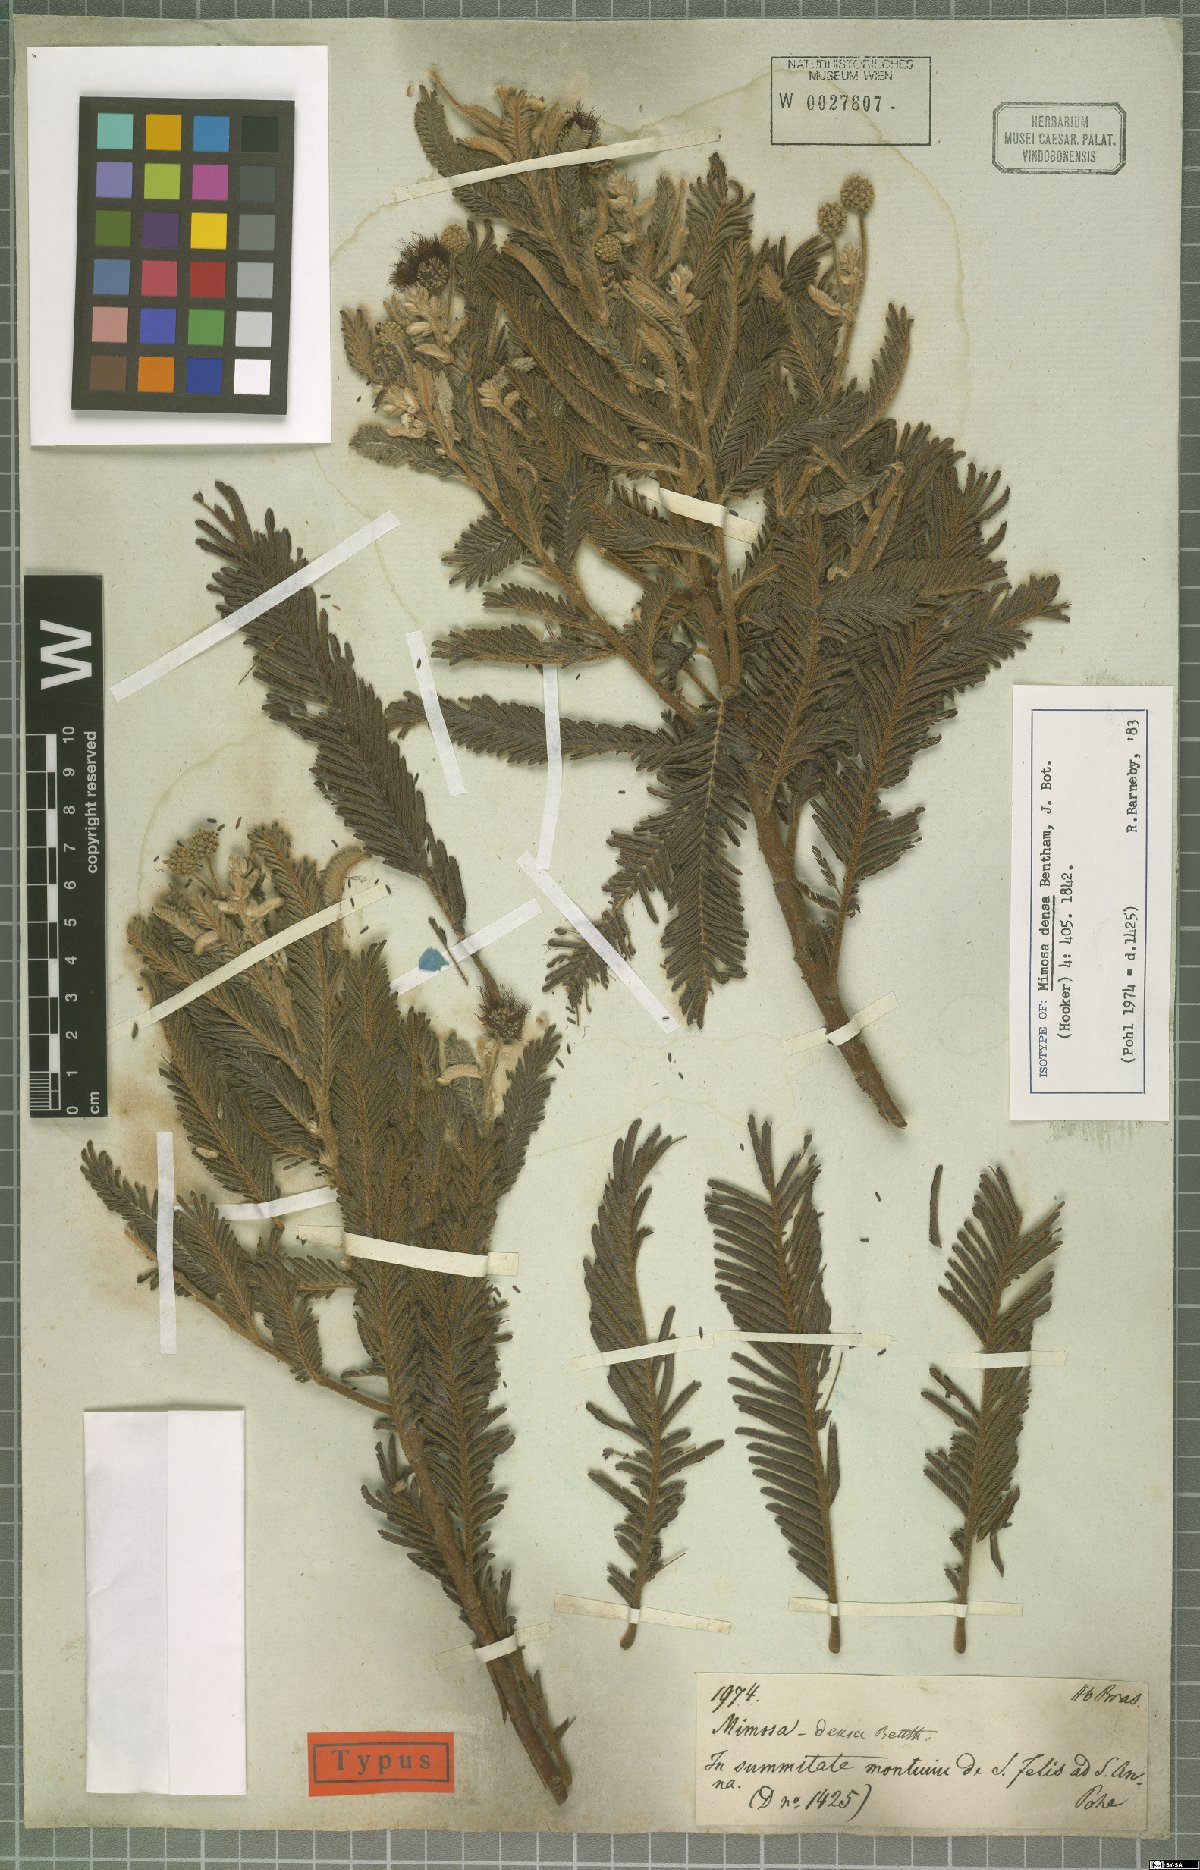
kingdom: Plantae
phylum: Tracheophyta
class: Magnoliopsida
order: Fabales
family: Fabaceae
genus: Mimosa
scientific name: Mimosa densa
